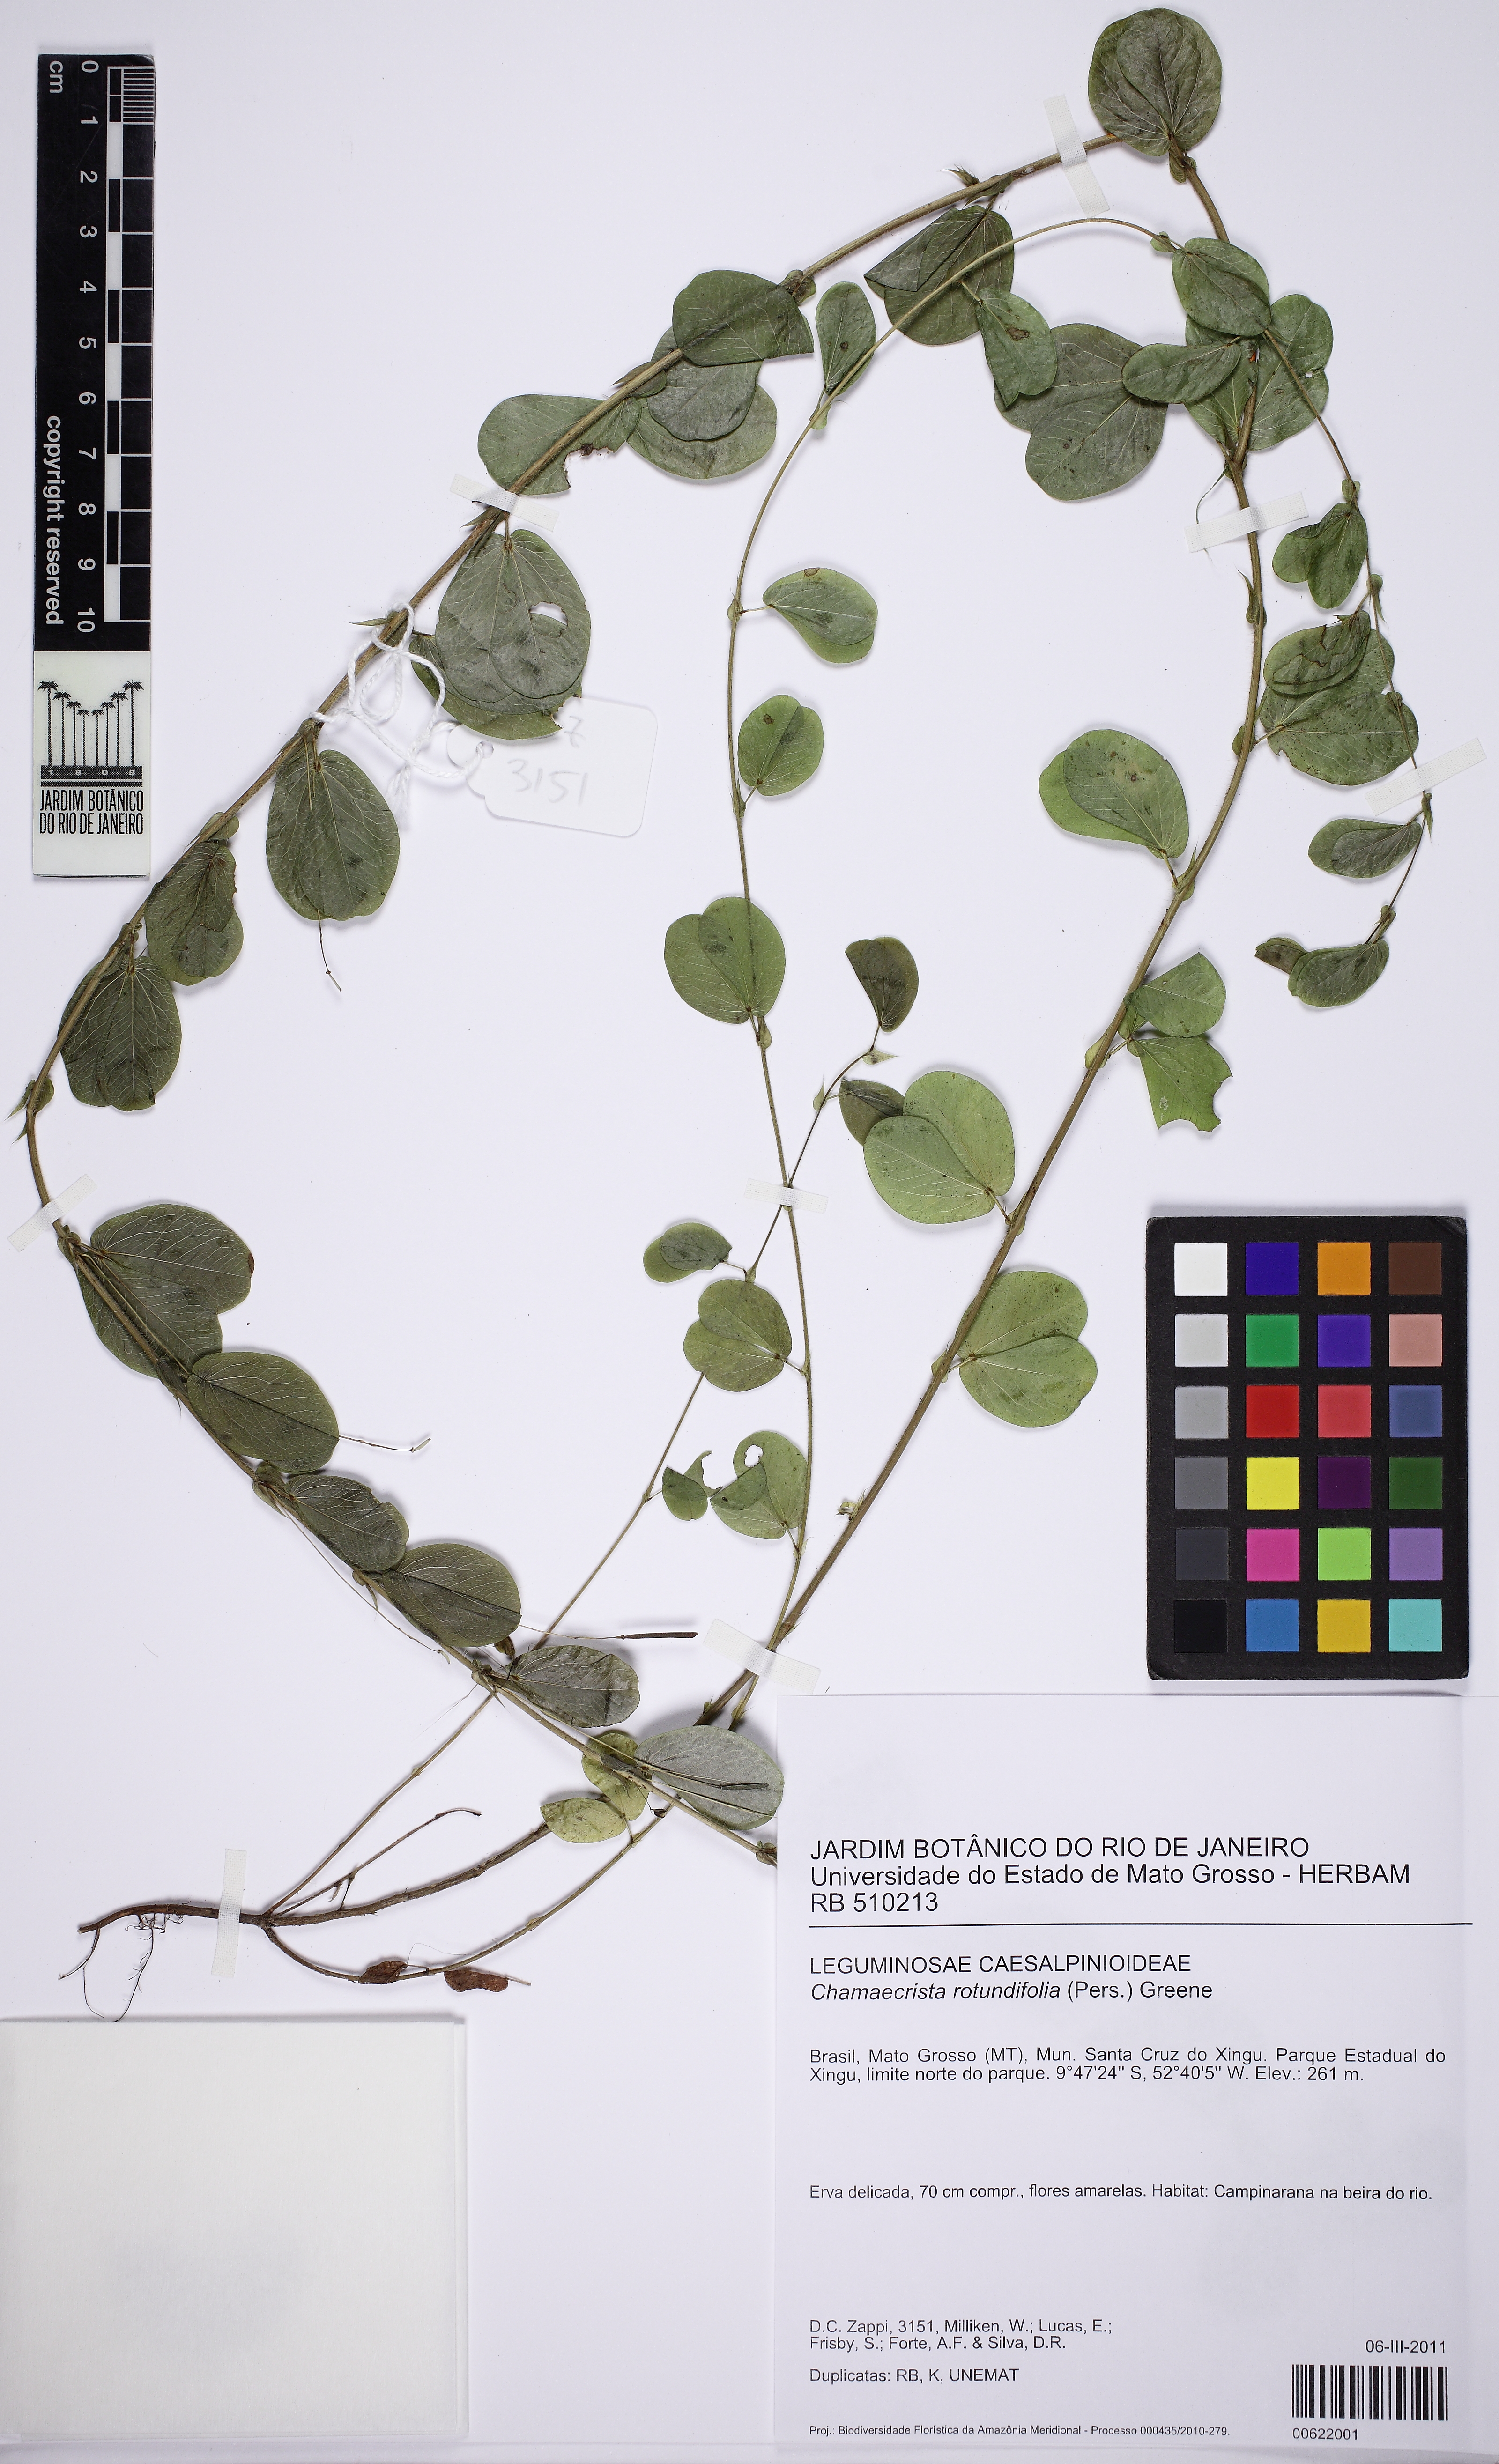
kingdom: Plantae
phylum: Tracheophyta
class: Magnoliopsida
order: Fabales
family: Fabaceae
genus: Chamaecrista
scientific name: Chamaecrista rotundifolia
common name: Round-leaf cassia
